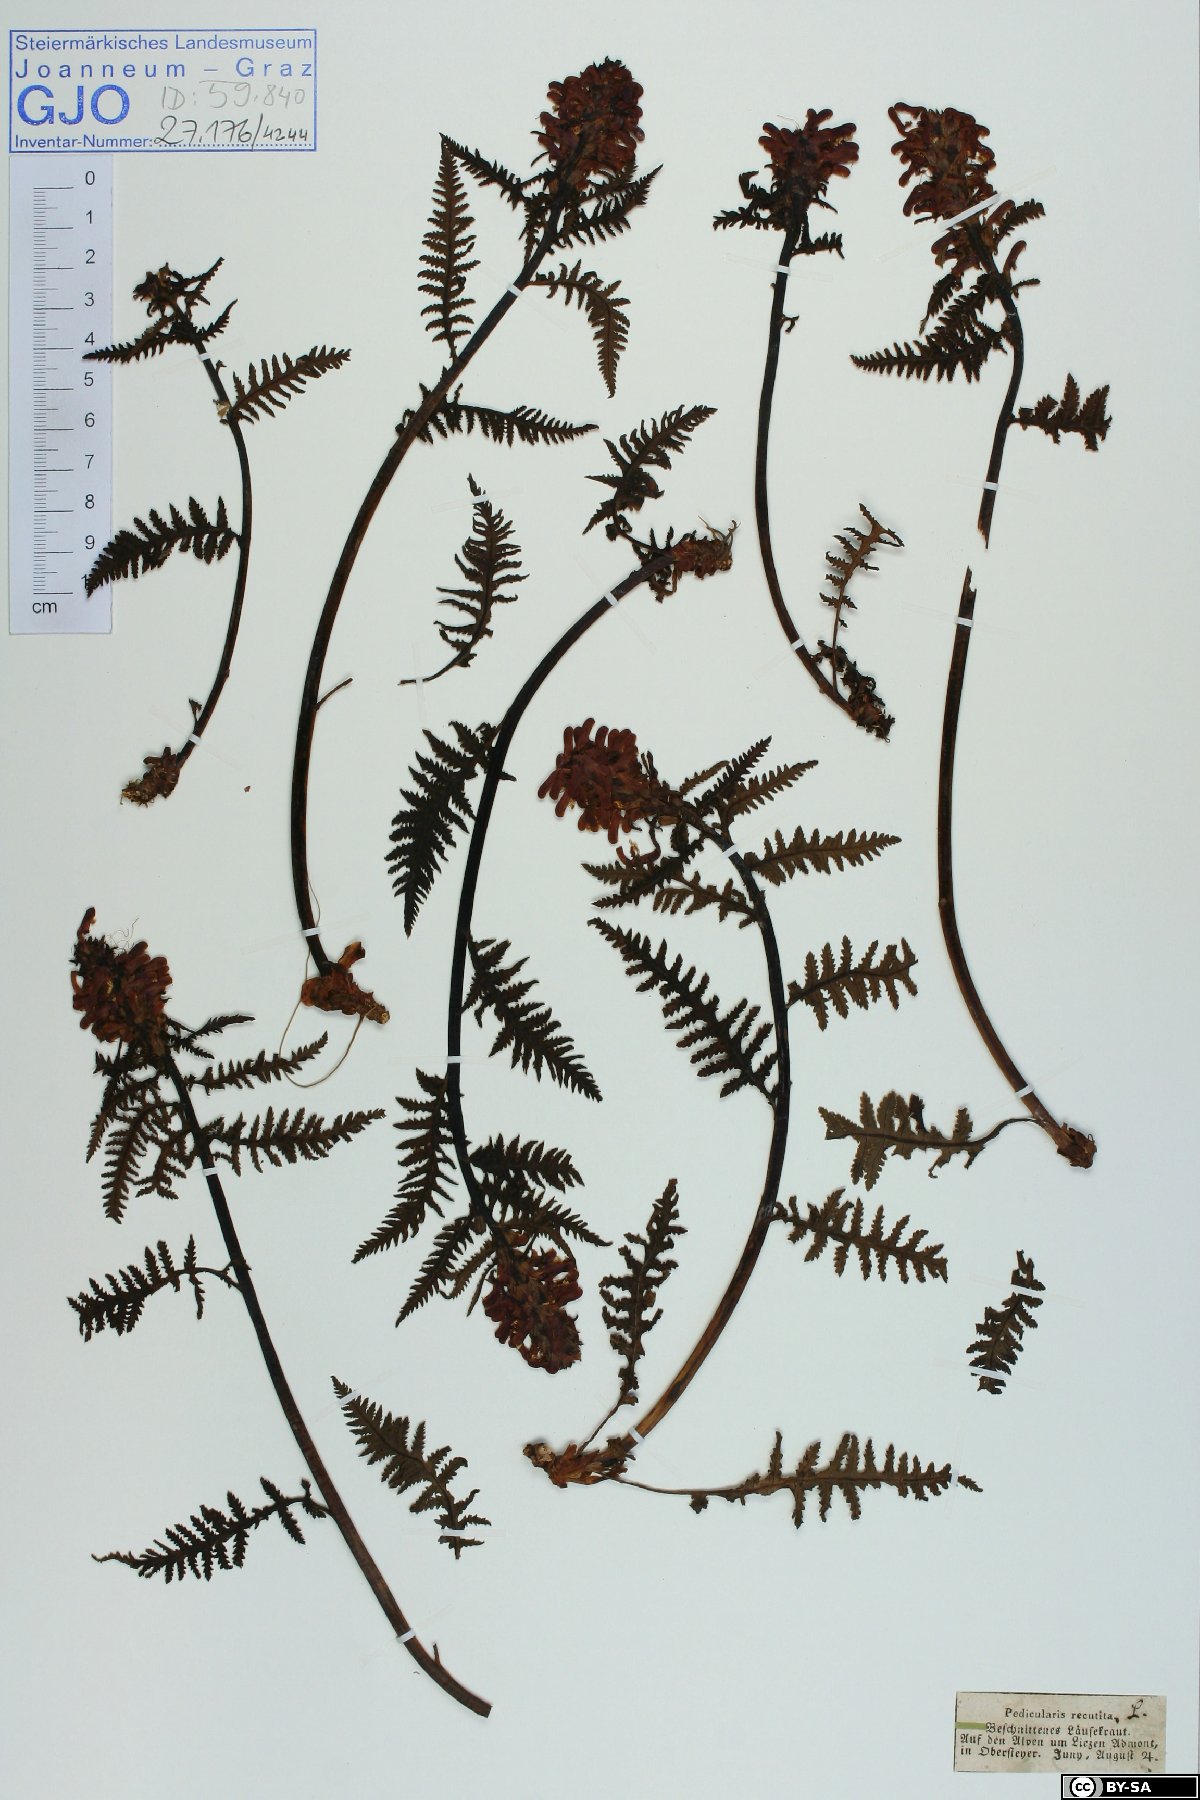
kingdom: Plantae
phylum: Tracheophyta
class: Magnoliopsida
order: Lamiales
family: Orobanchaceae
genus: Pedicularis
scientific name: Pedicularis recutita
